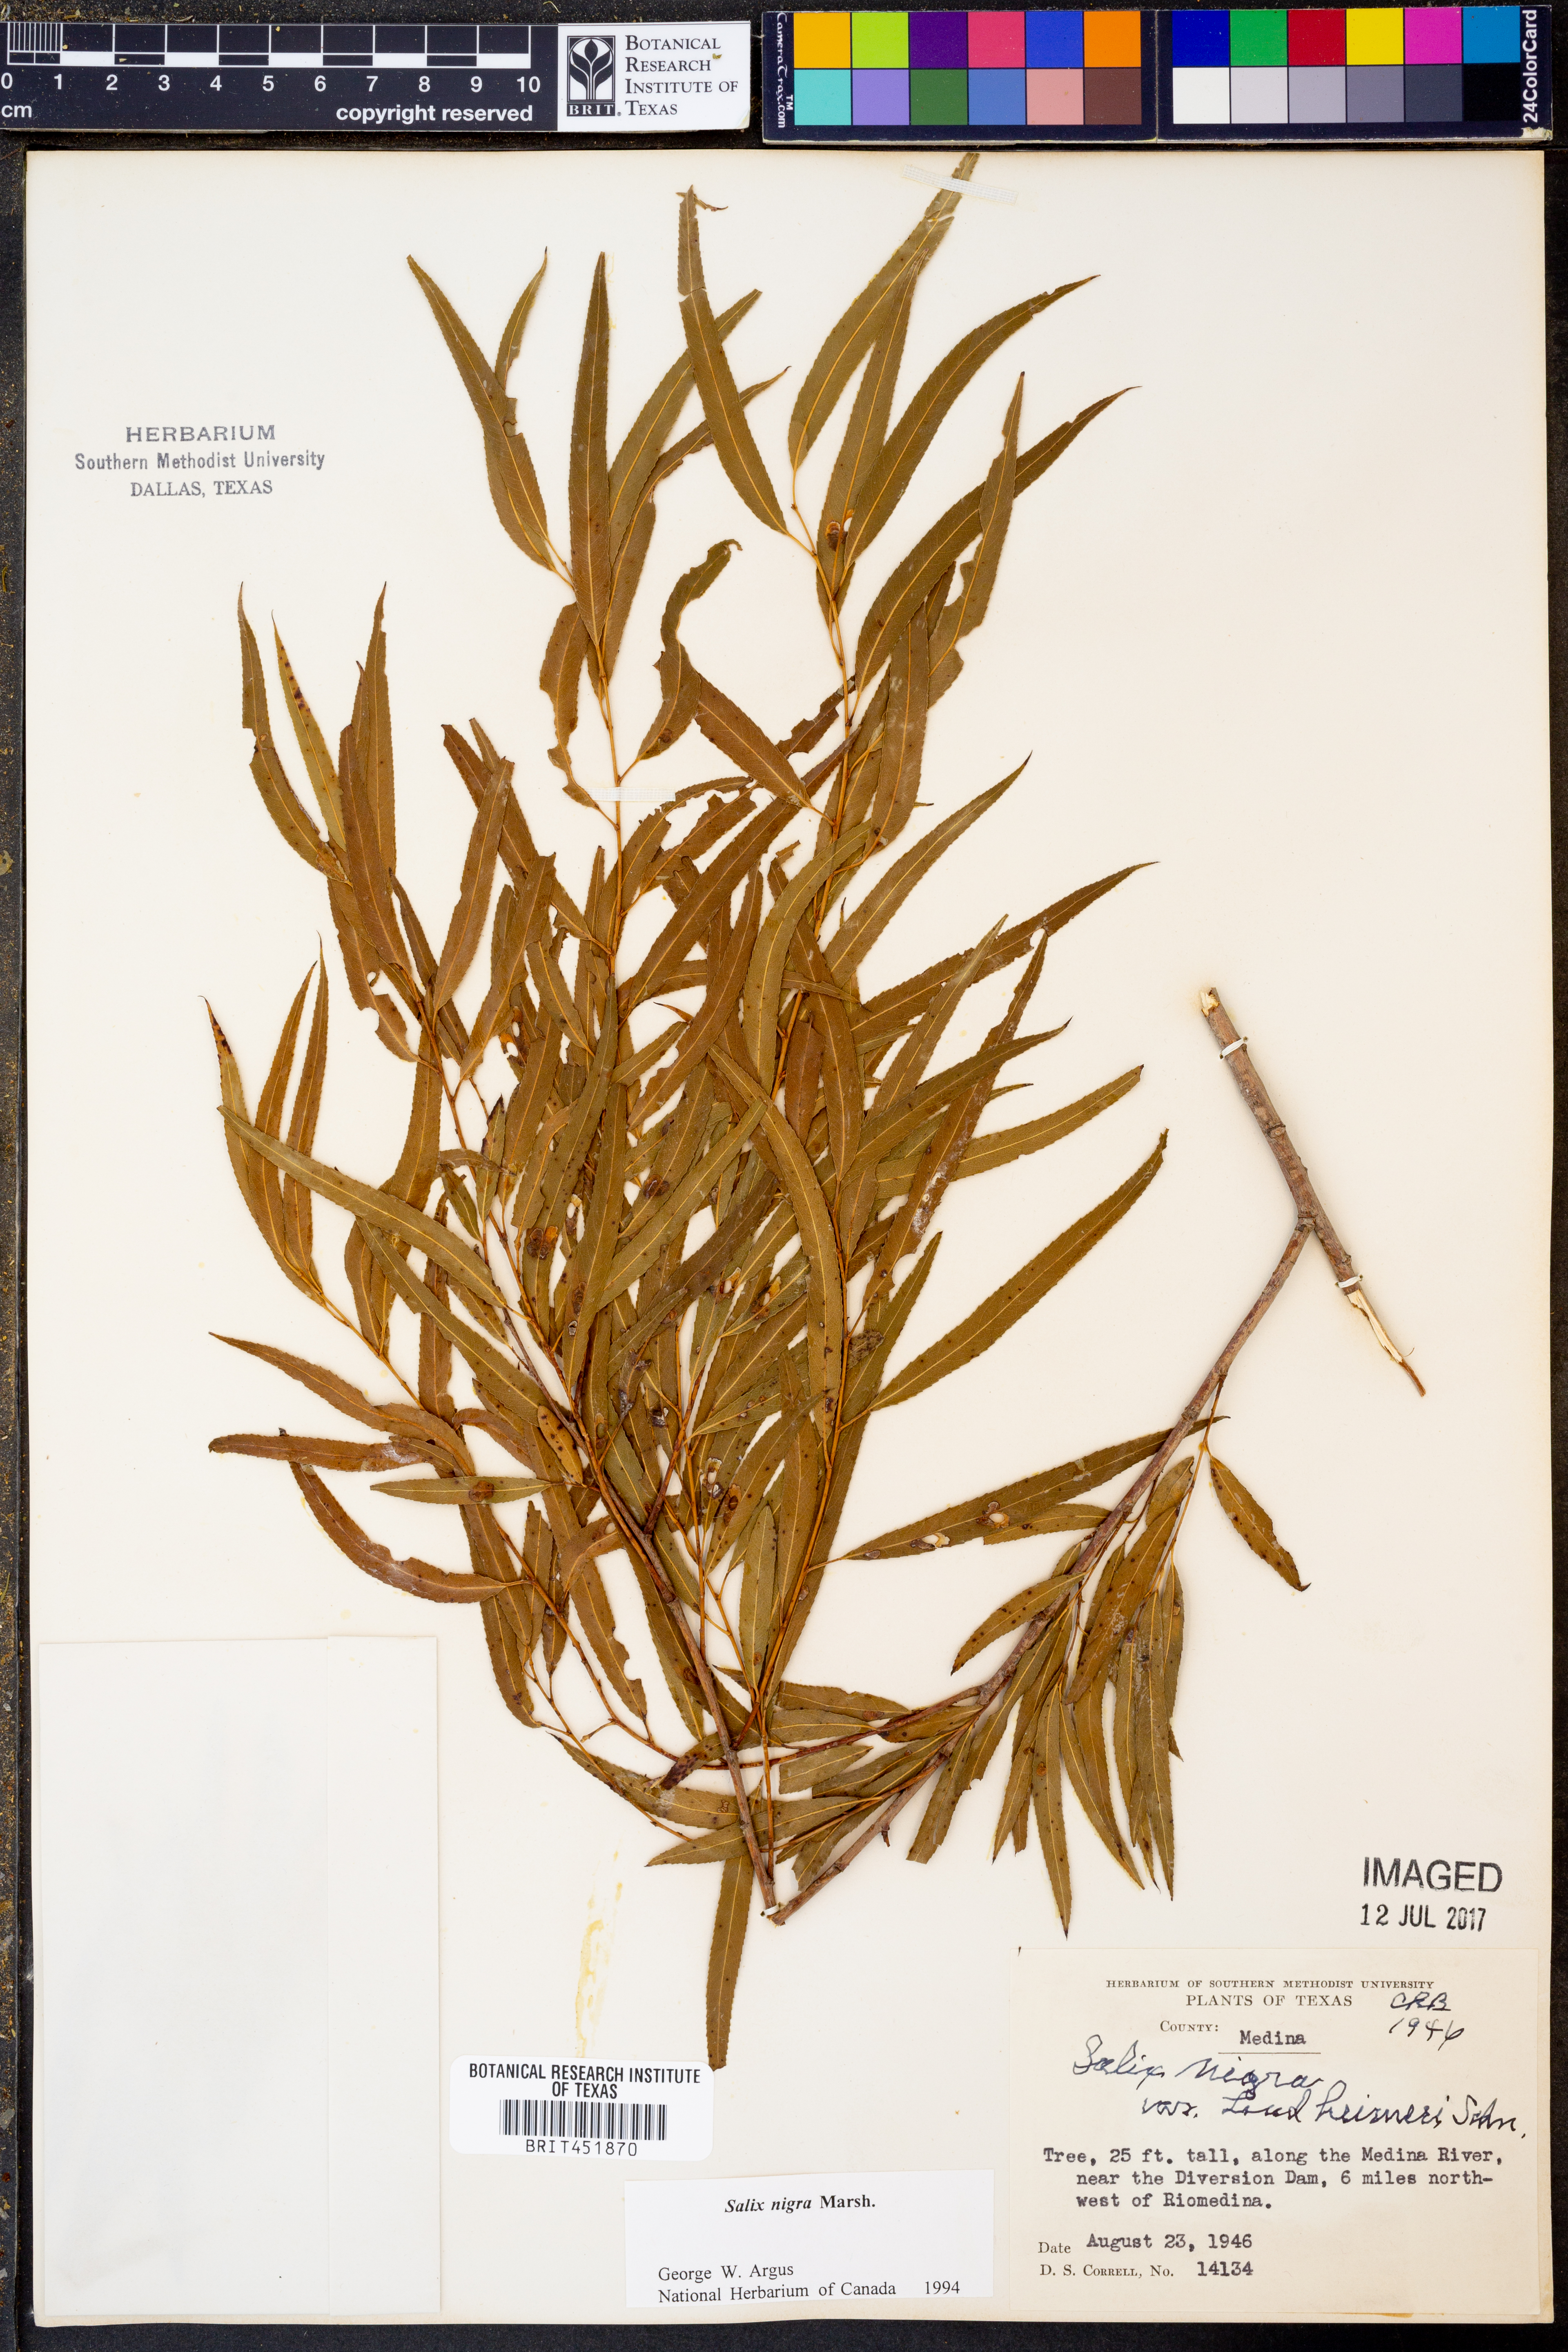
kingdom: Plantae
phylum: Tracheophyta
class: Magnoliopsida
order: Malpighiales
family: Salicaceae
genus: Salix
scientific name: Salix nigra
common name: Black willow
